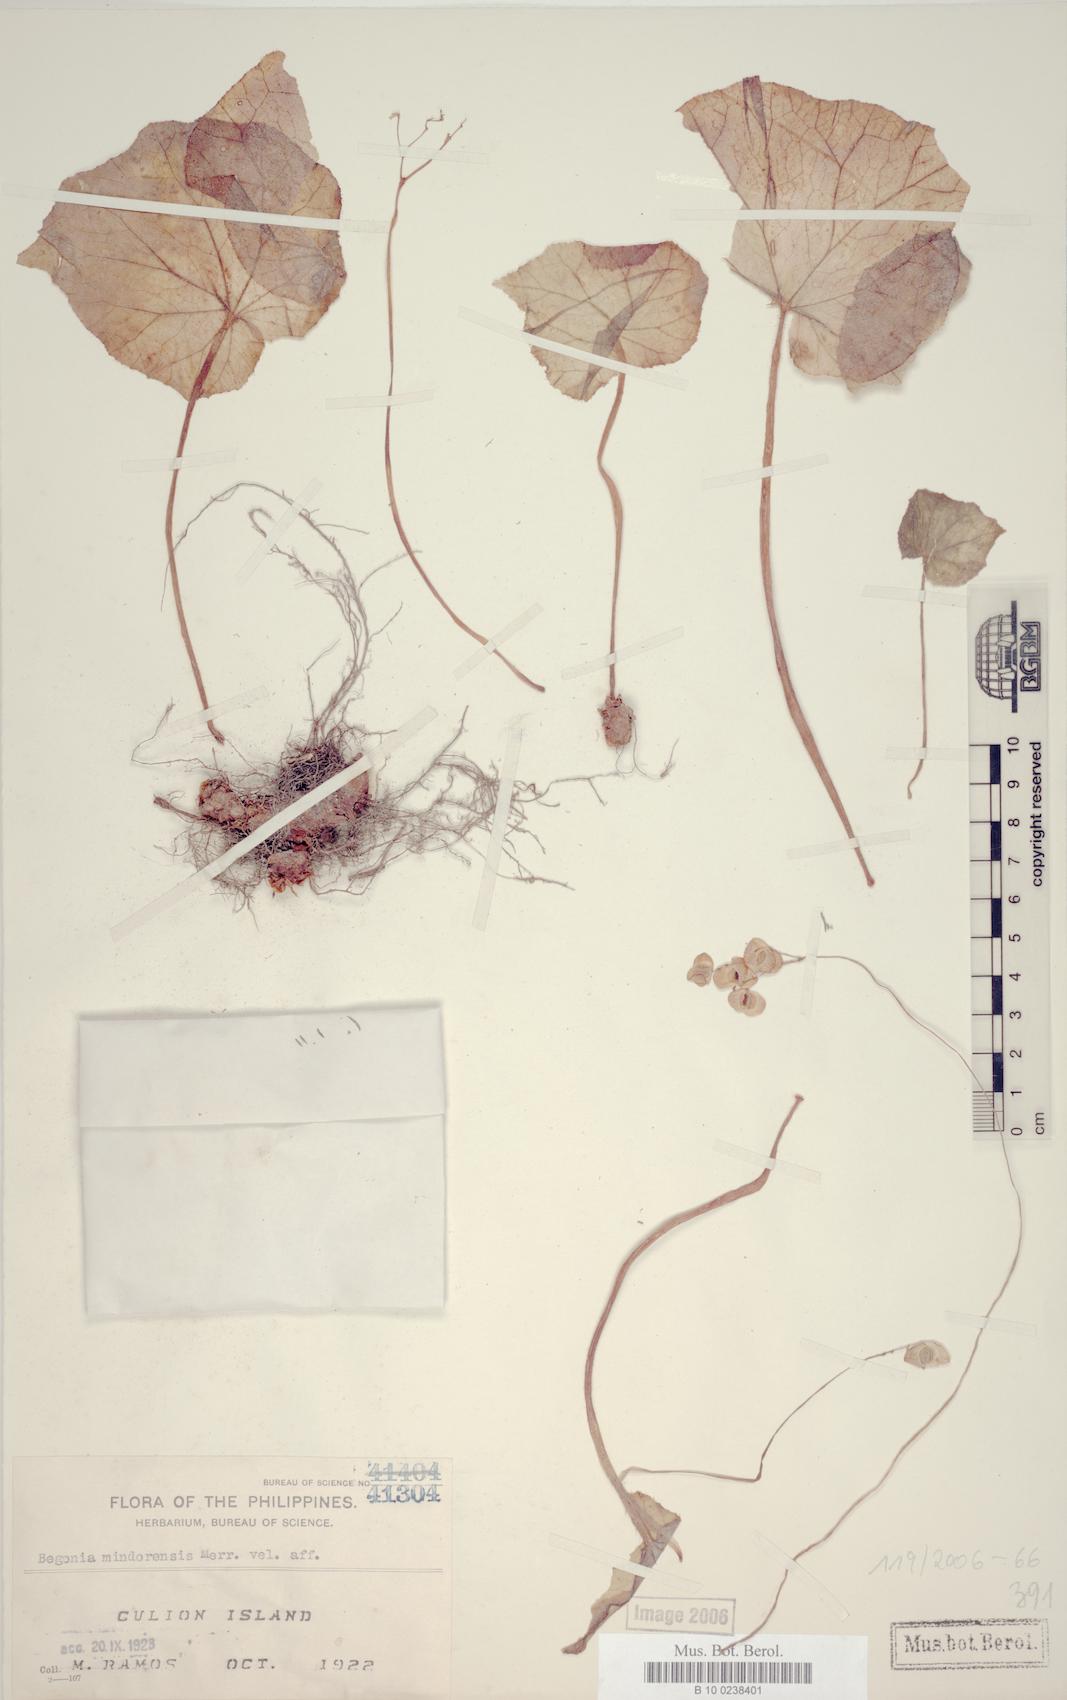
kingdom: Plantae
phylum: Tracheophyta
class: Magnoliopsida
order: Cucurbitales
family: Begoniaceae
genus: Begonia
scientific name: Begonia mindorensis
